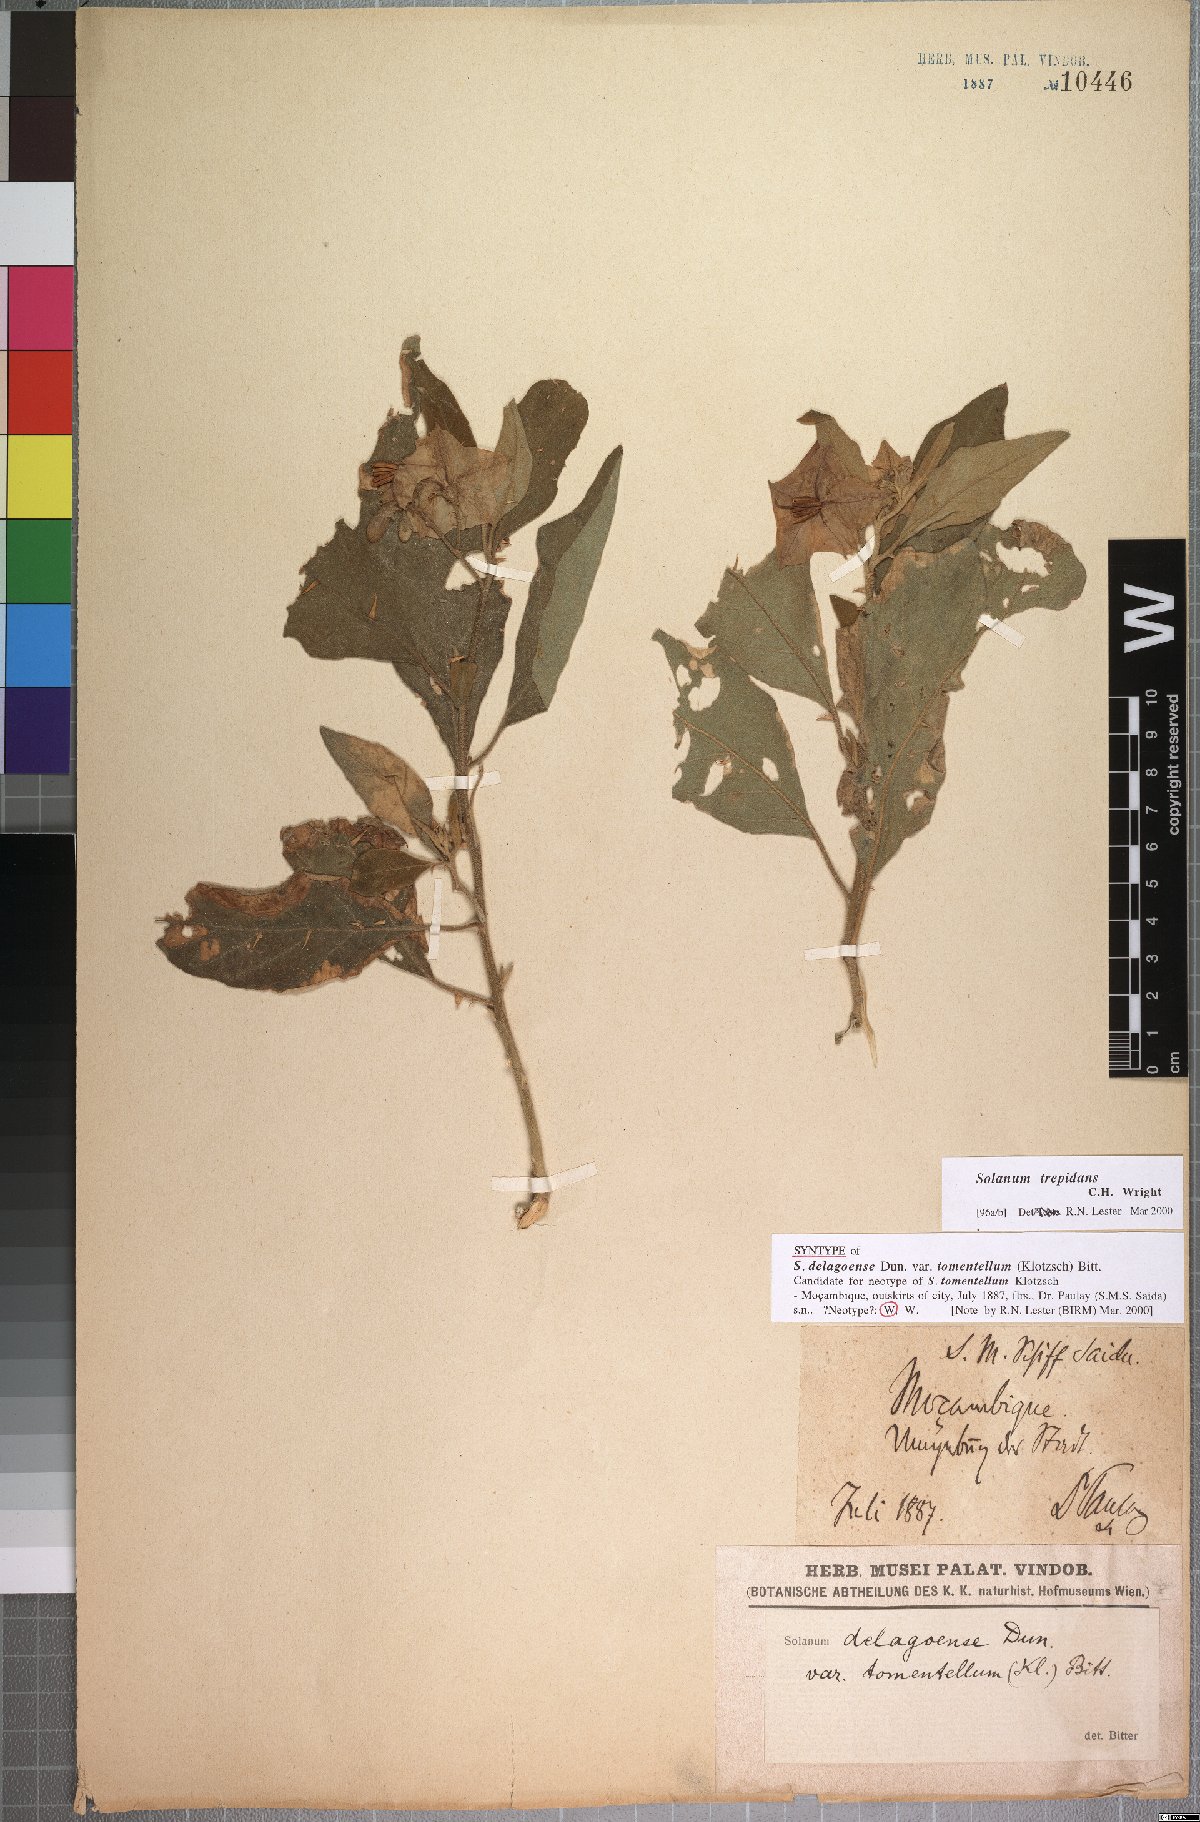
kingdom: Plantae
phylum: Tracheophyta
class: Magnoliopsida
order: Solanales
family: Solanaceae
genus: Solanum
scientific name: Solanum campylacanthum
